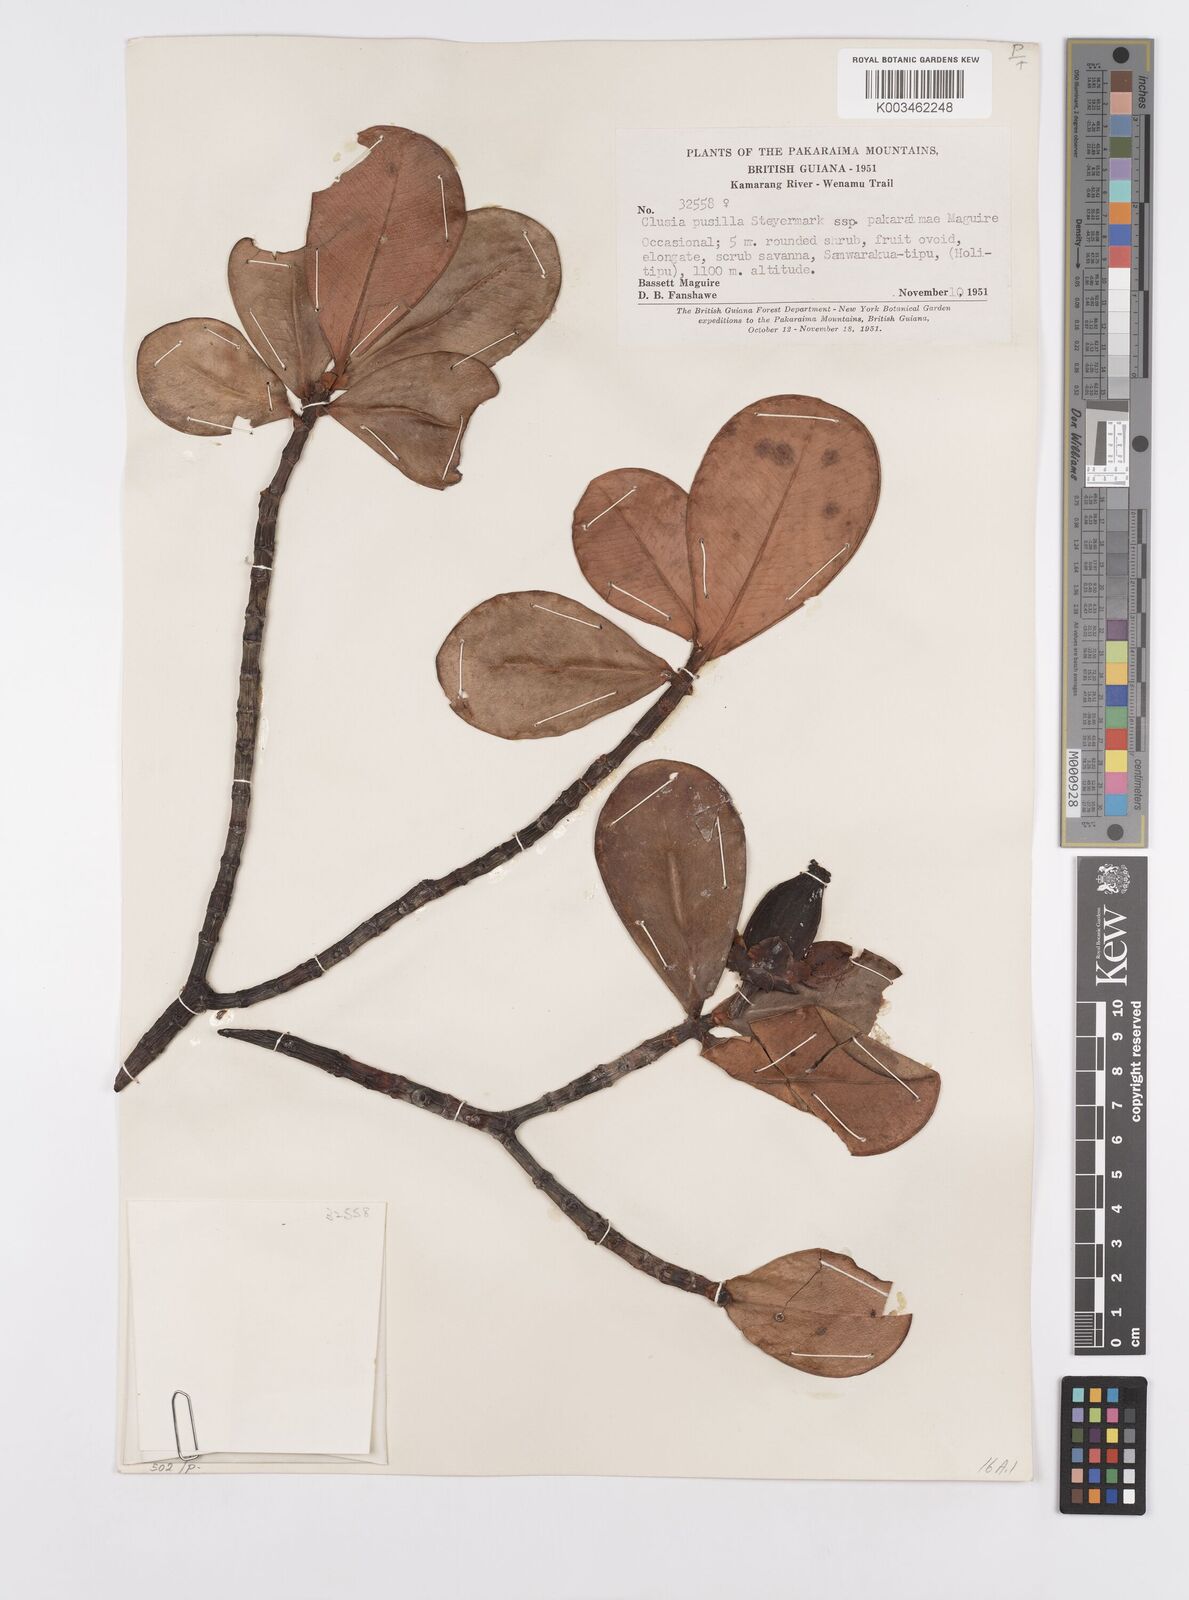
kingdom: Plantae
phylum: Tracheophyta
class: Magnoliopsida
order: Malpighiales
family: Clusiaceae
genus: Clusia
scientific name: Clusia pusilla
